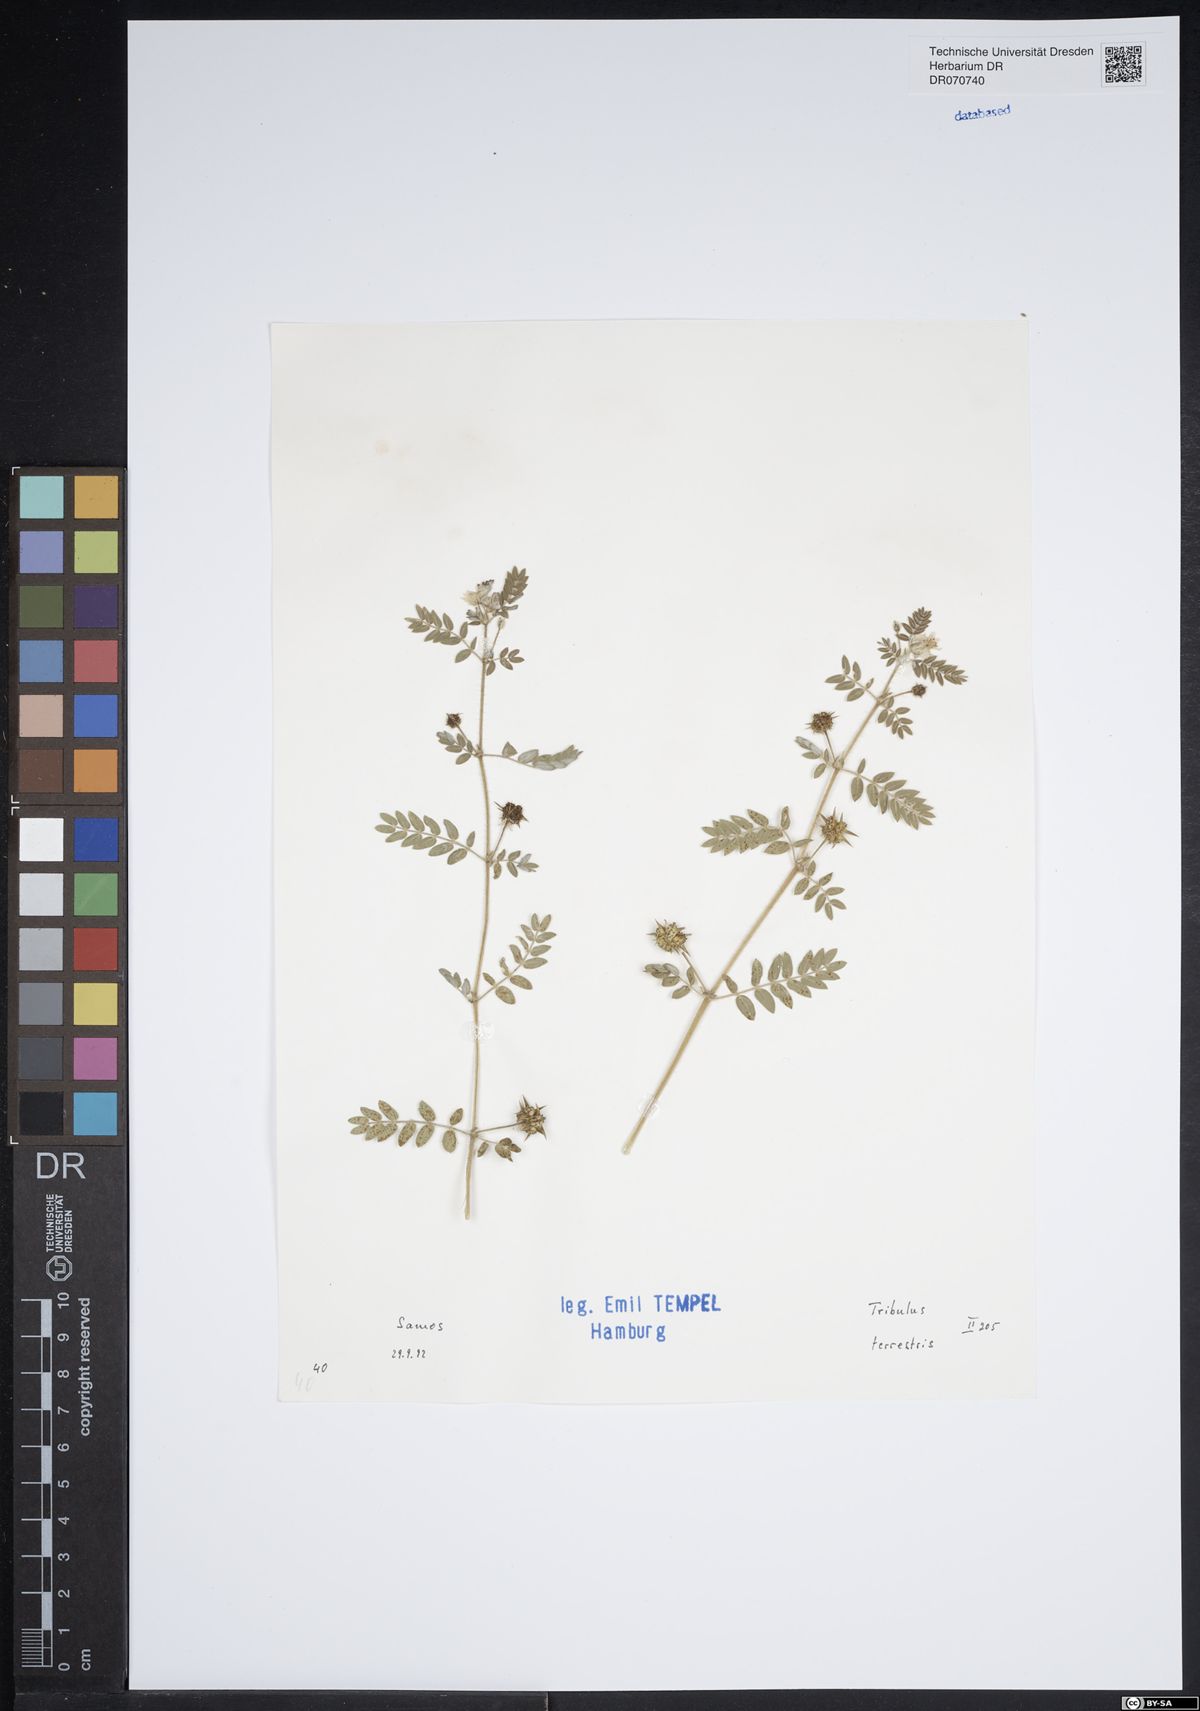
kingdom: Plantae
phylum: Tracheophyta
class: Magnoliopsida
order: Zygophyllales
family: Zygophyllaceae
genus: Tribulus
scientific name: Tribulus terrestris
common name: Puncturevine
